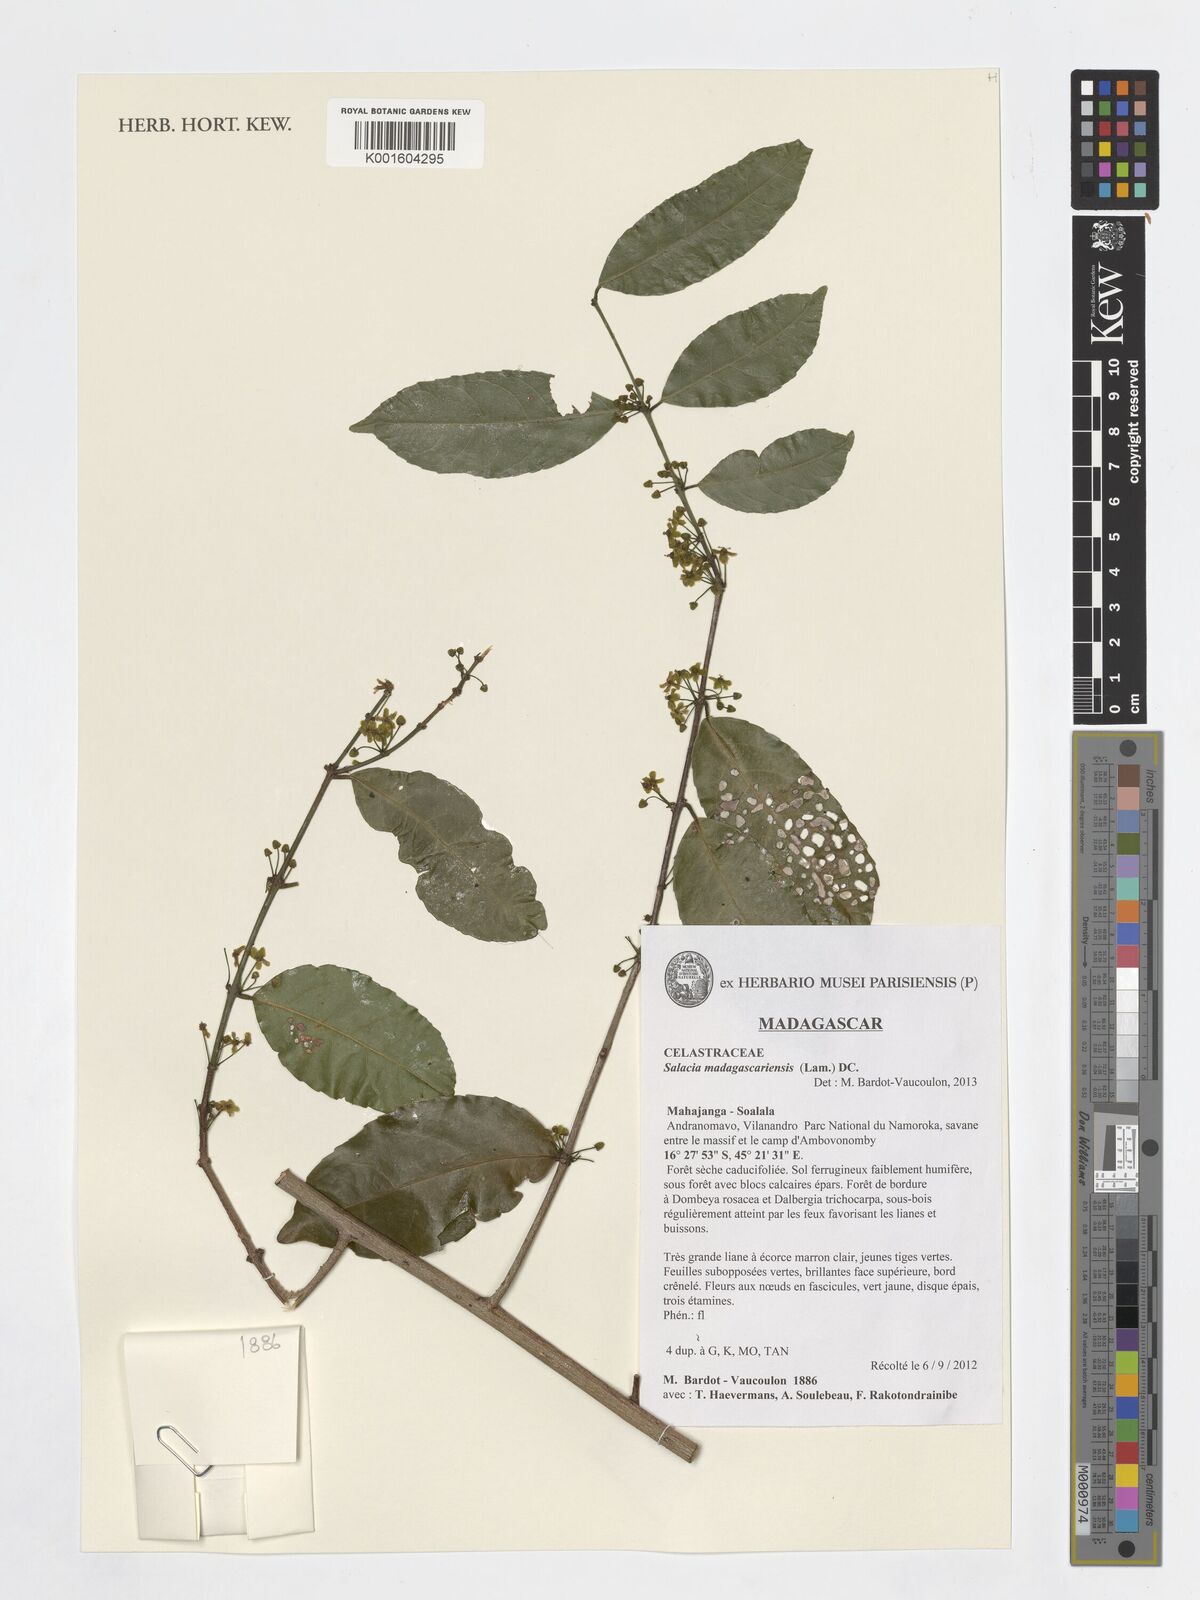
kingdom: Plantae
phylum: Tracheophyta
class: Magnoliopsida
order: Celastrales
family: Celastraceae
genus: Salacia
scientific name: Salacia madagascariensis
